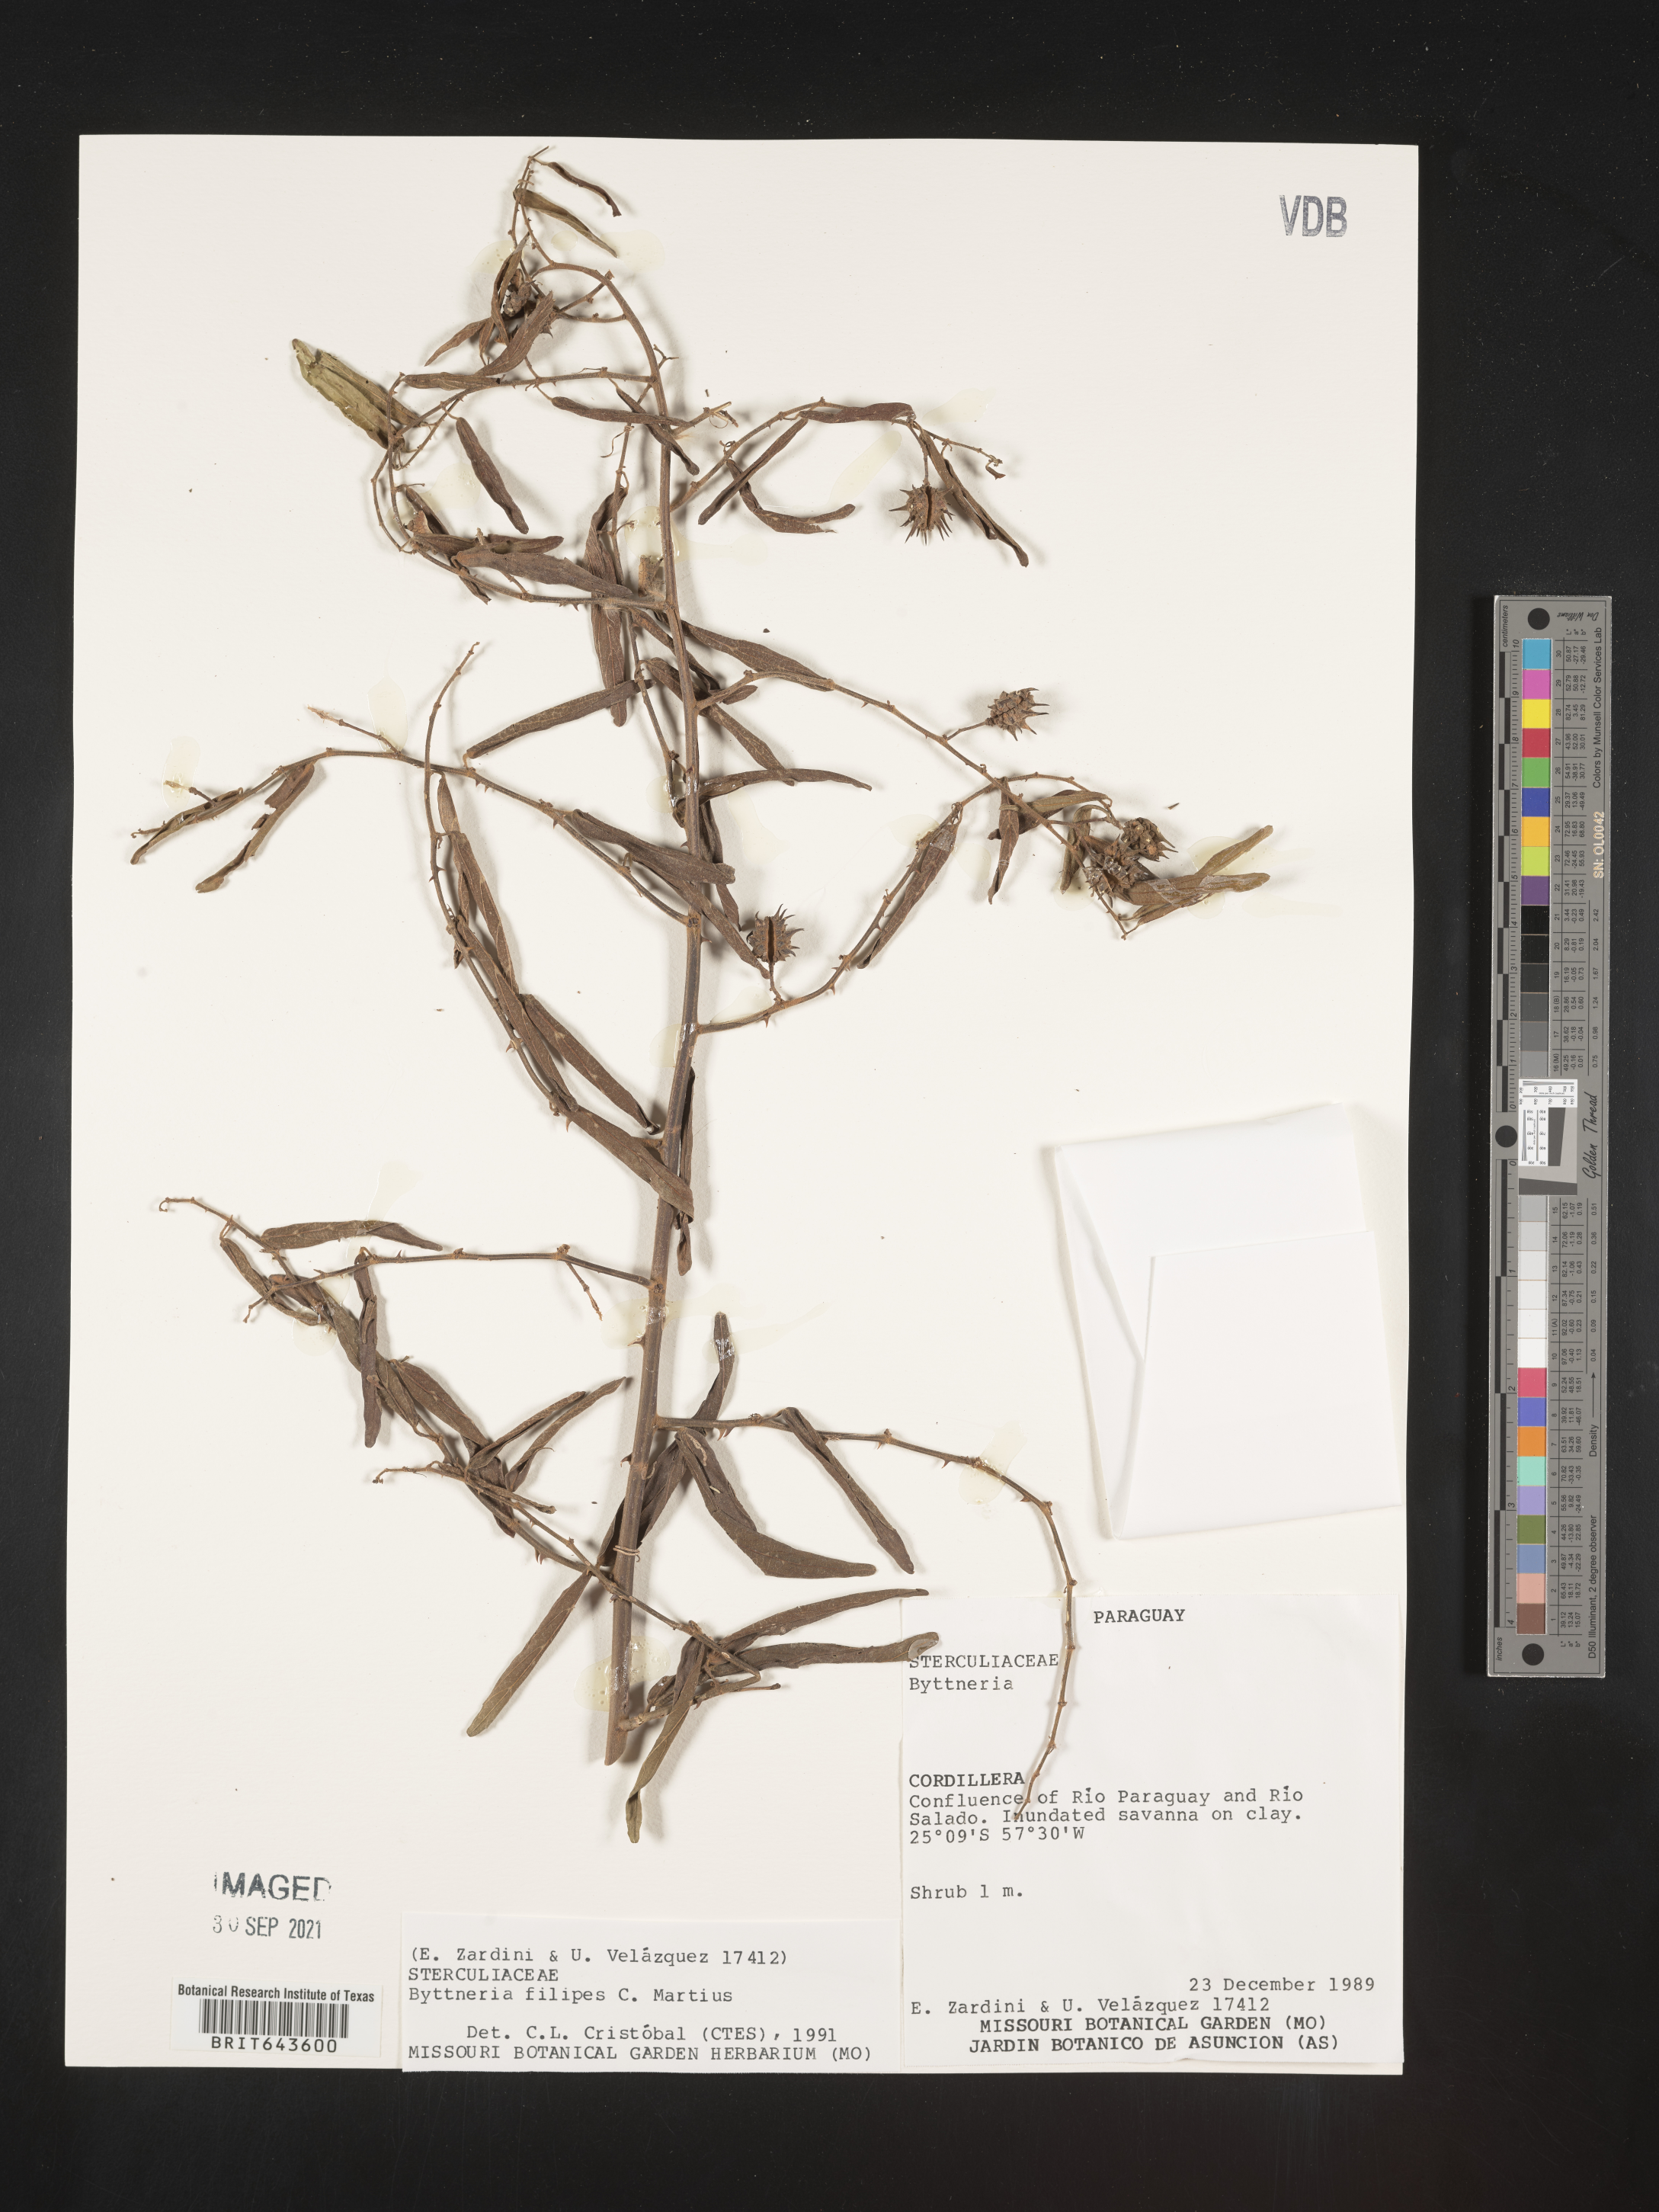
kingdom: Plantae
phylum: Tracheophyta
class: Magnoliopsida
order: Malvales
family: Malvaceae
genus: Byttneria
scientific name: Byttneria
